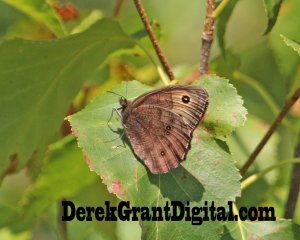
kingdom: Animalia
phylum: Arthropoda
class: Insecta
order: Lepidoptera
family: Nymphalidae
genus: Cercyonis
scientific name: Cercyonis pegala
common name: Common Wood-Nymph
